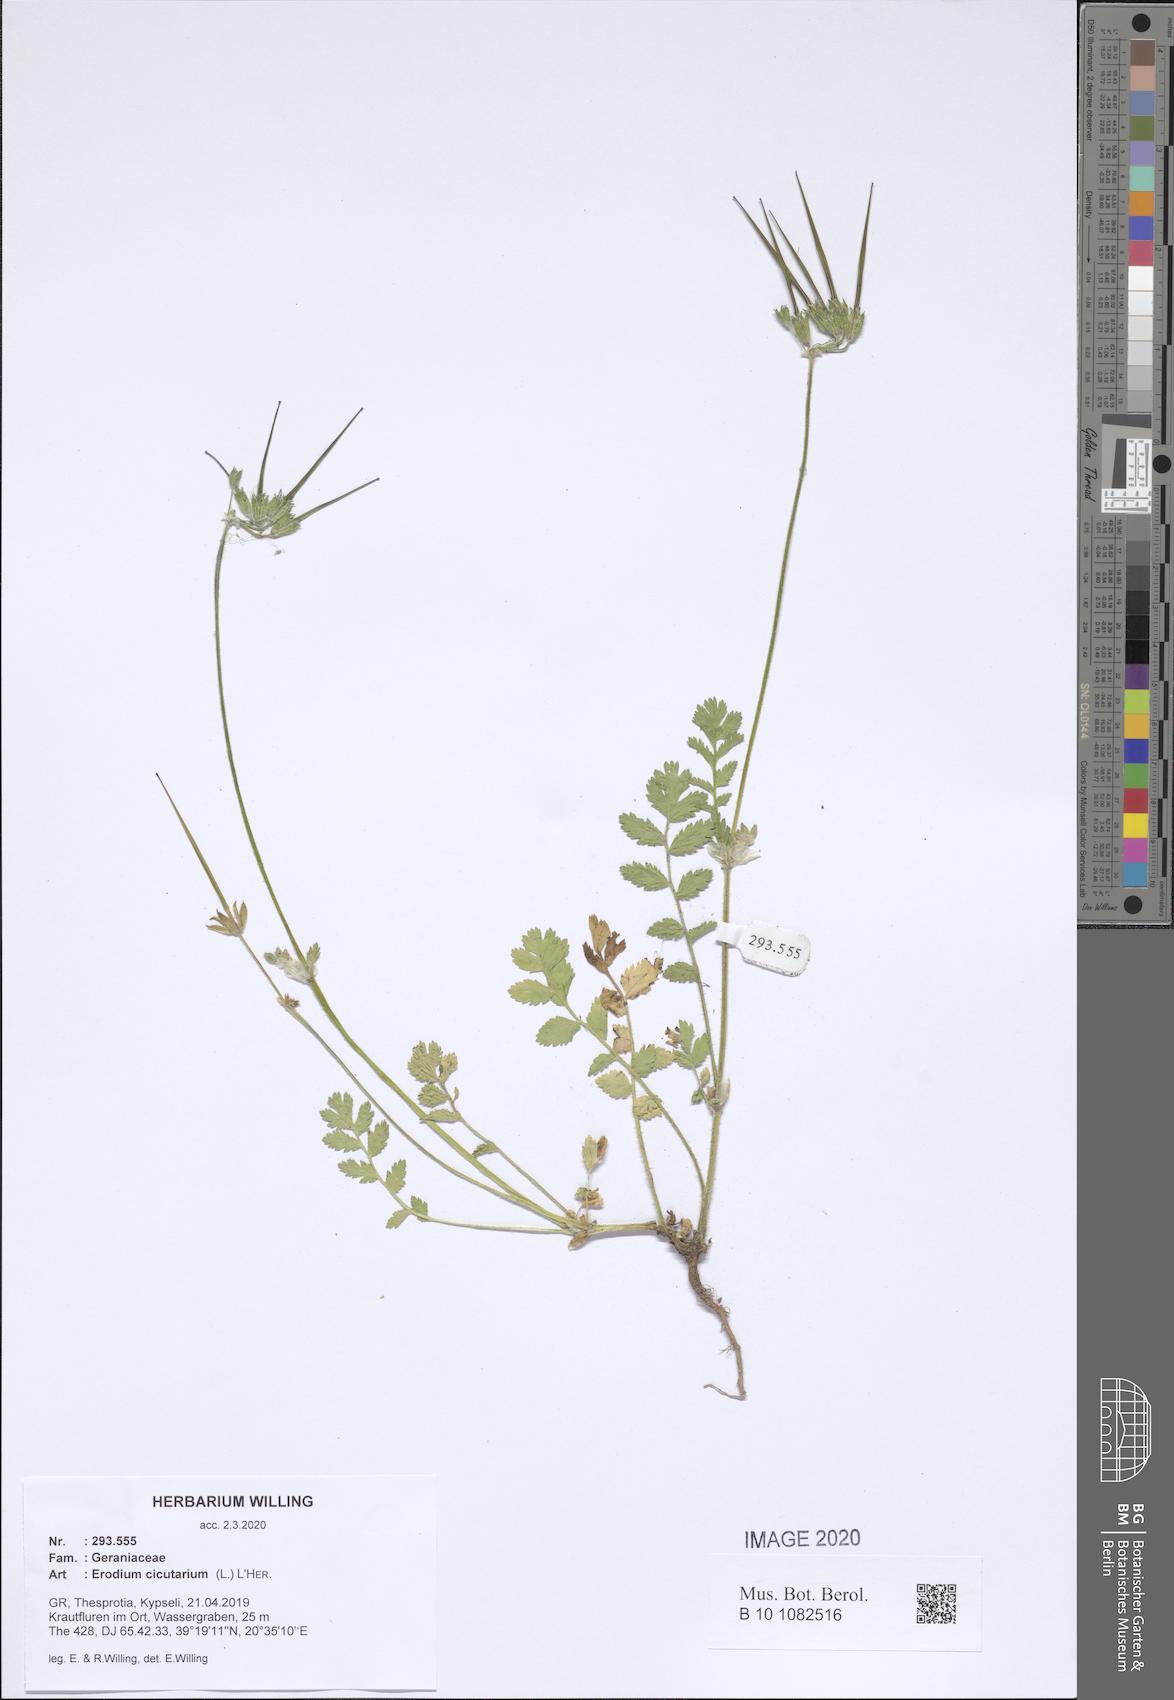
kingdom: Plantae
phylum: Tracheophyta
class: Magnoliopsida
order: Geraniales
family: Geraniaceae
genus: Erodium
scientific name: Erodium cicutarium
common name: Common stork's-bill
